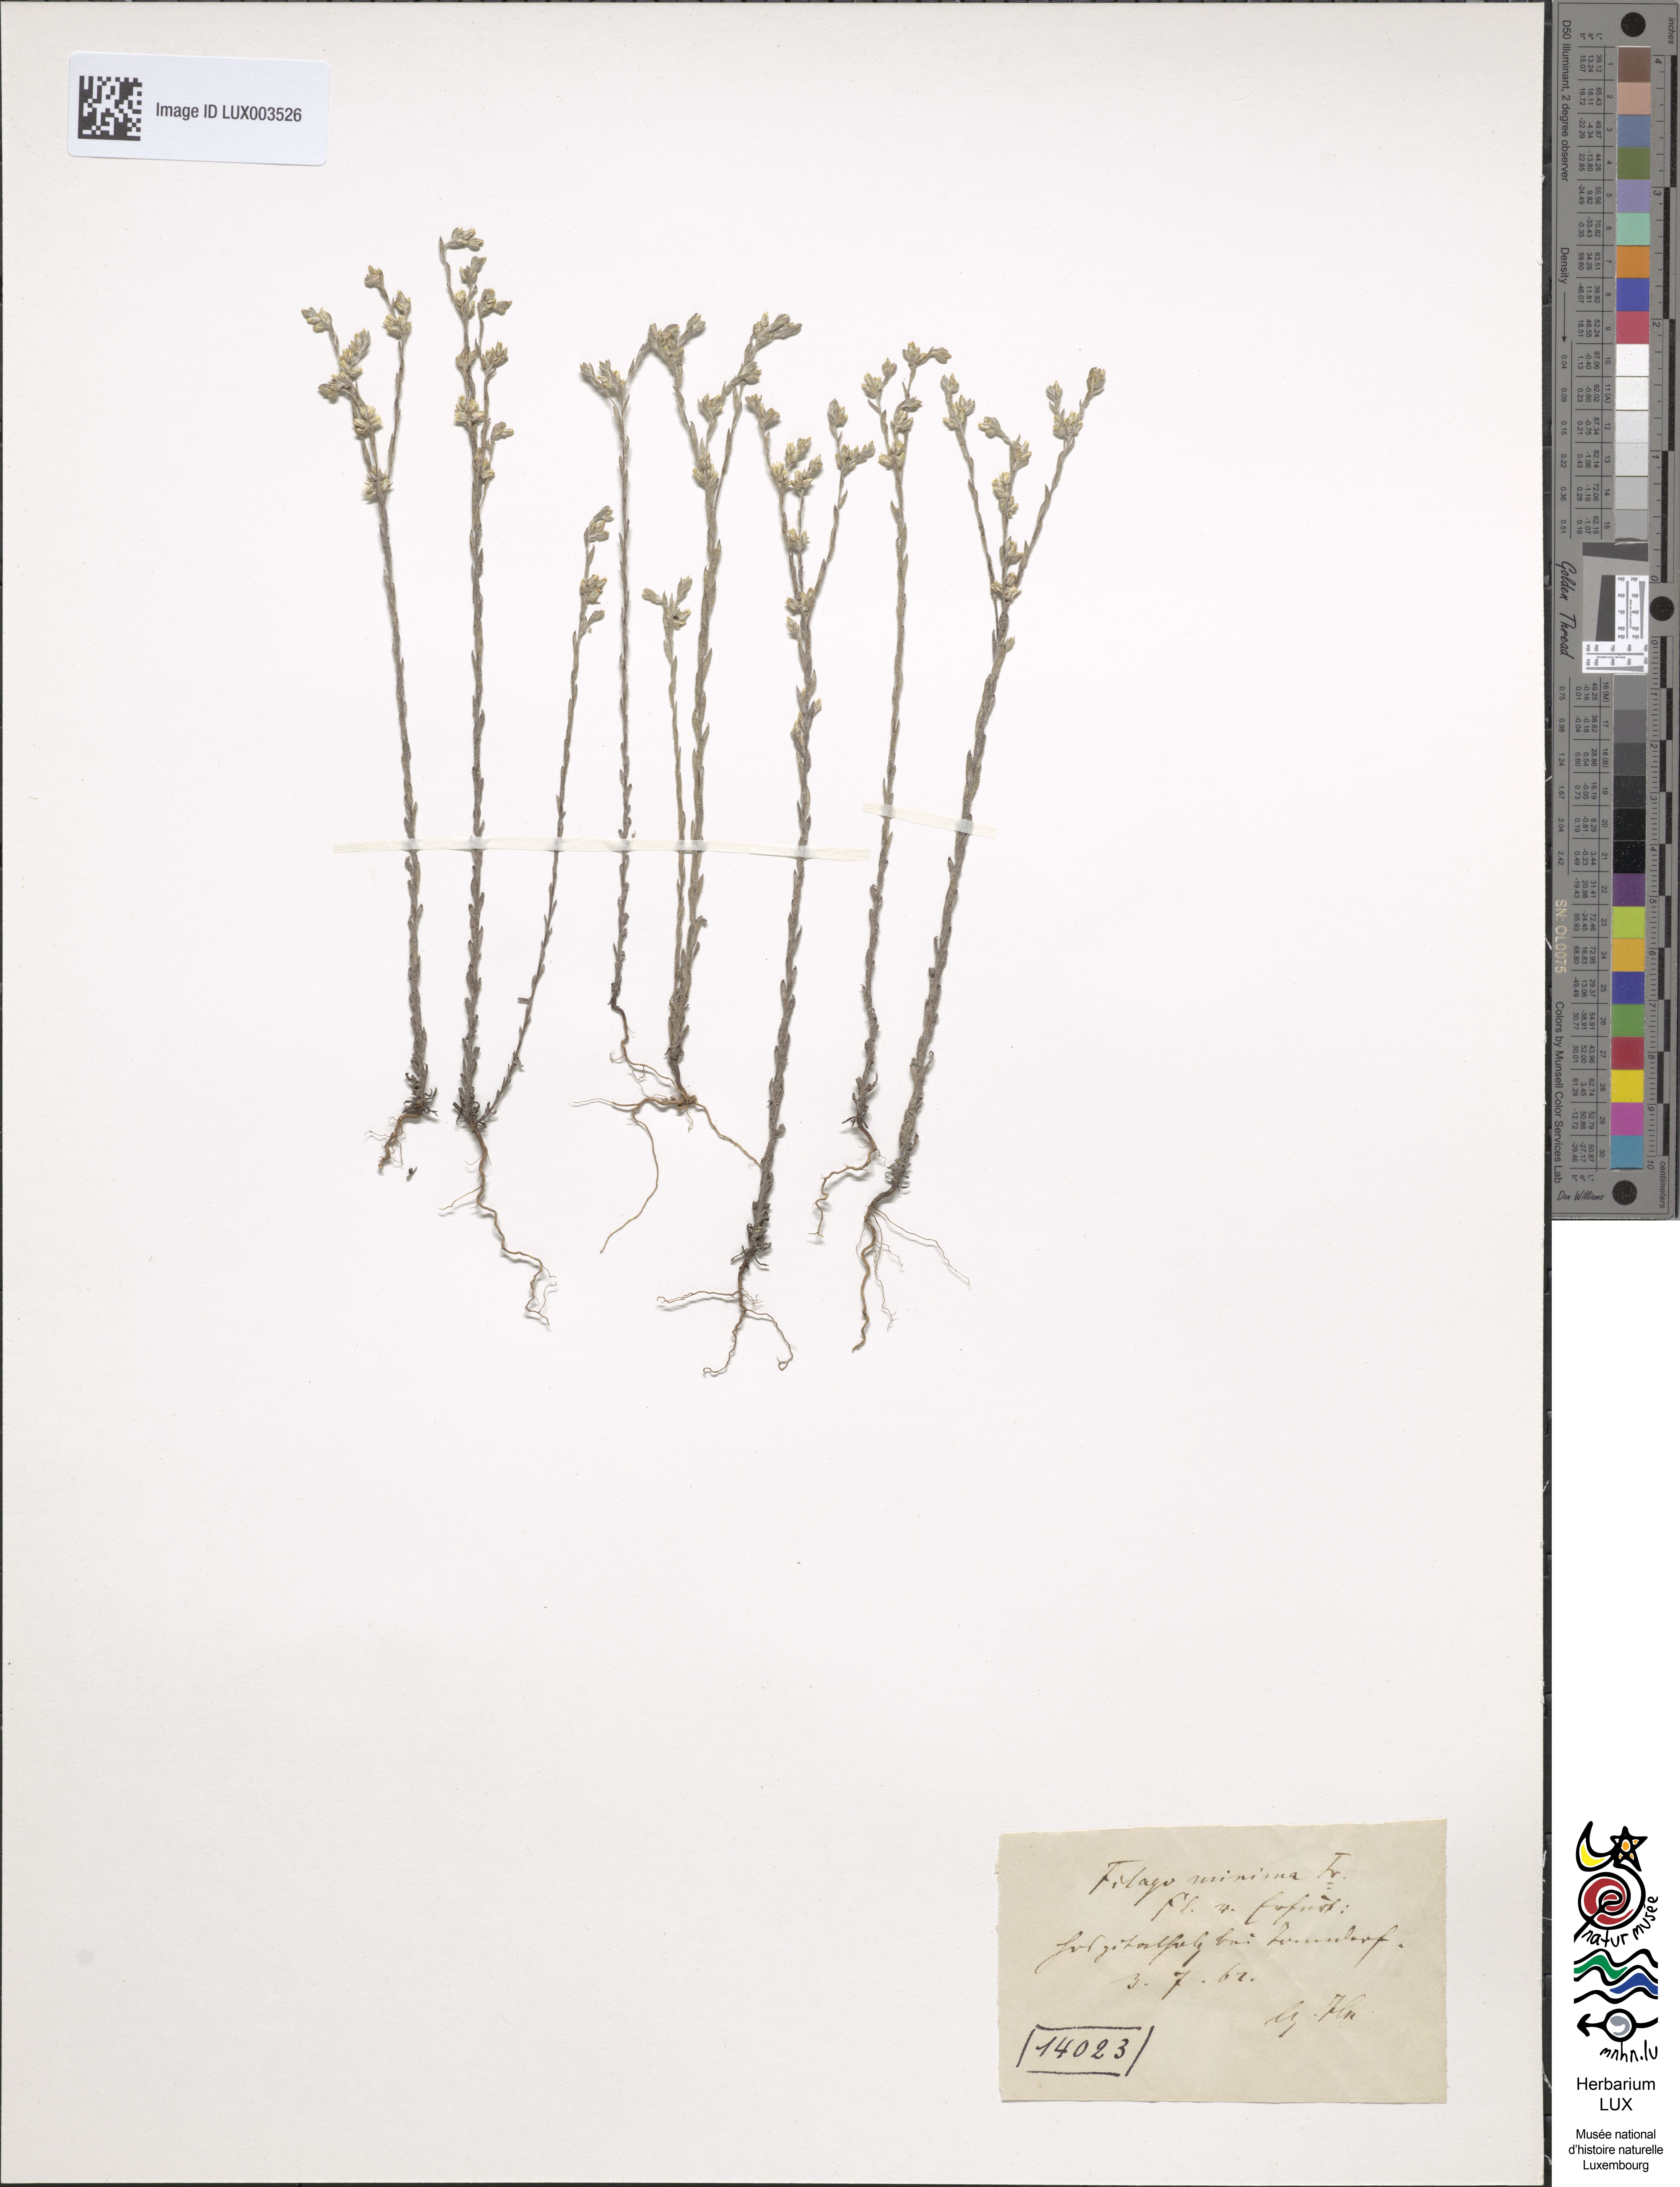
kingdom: Plantae
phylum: Tracheophyta
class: Magnoliopsida
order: Asterales
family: Asteraceae
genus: Logfia
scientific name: Logfia minima
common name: Little cottonrose
